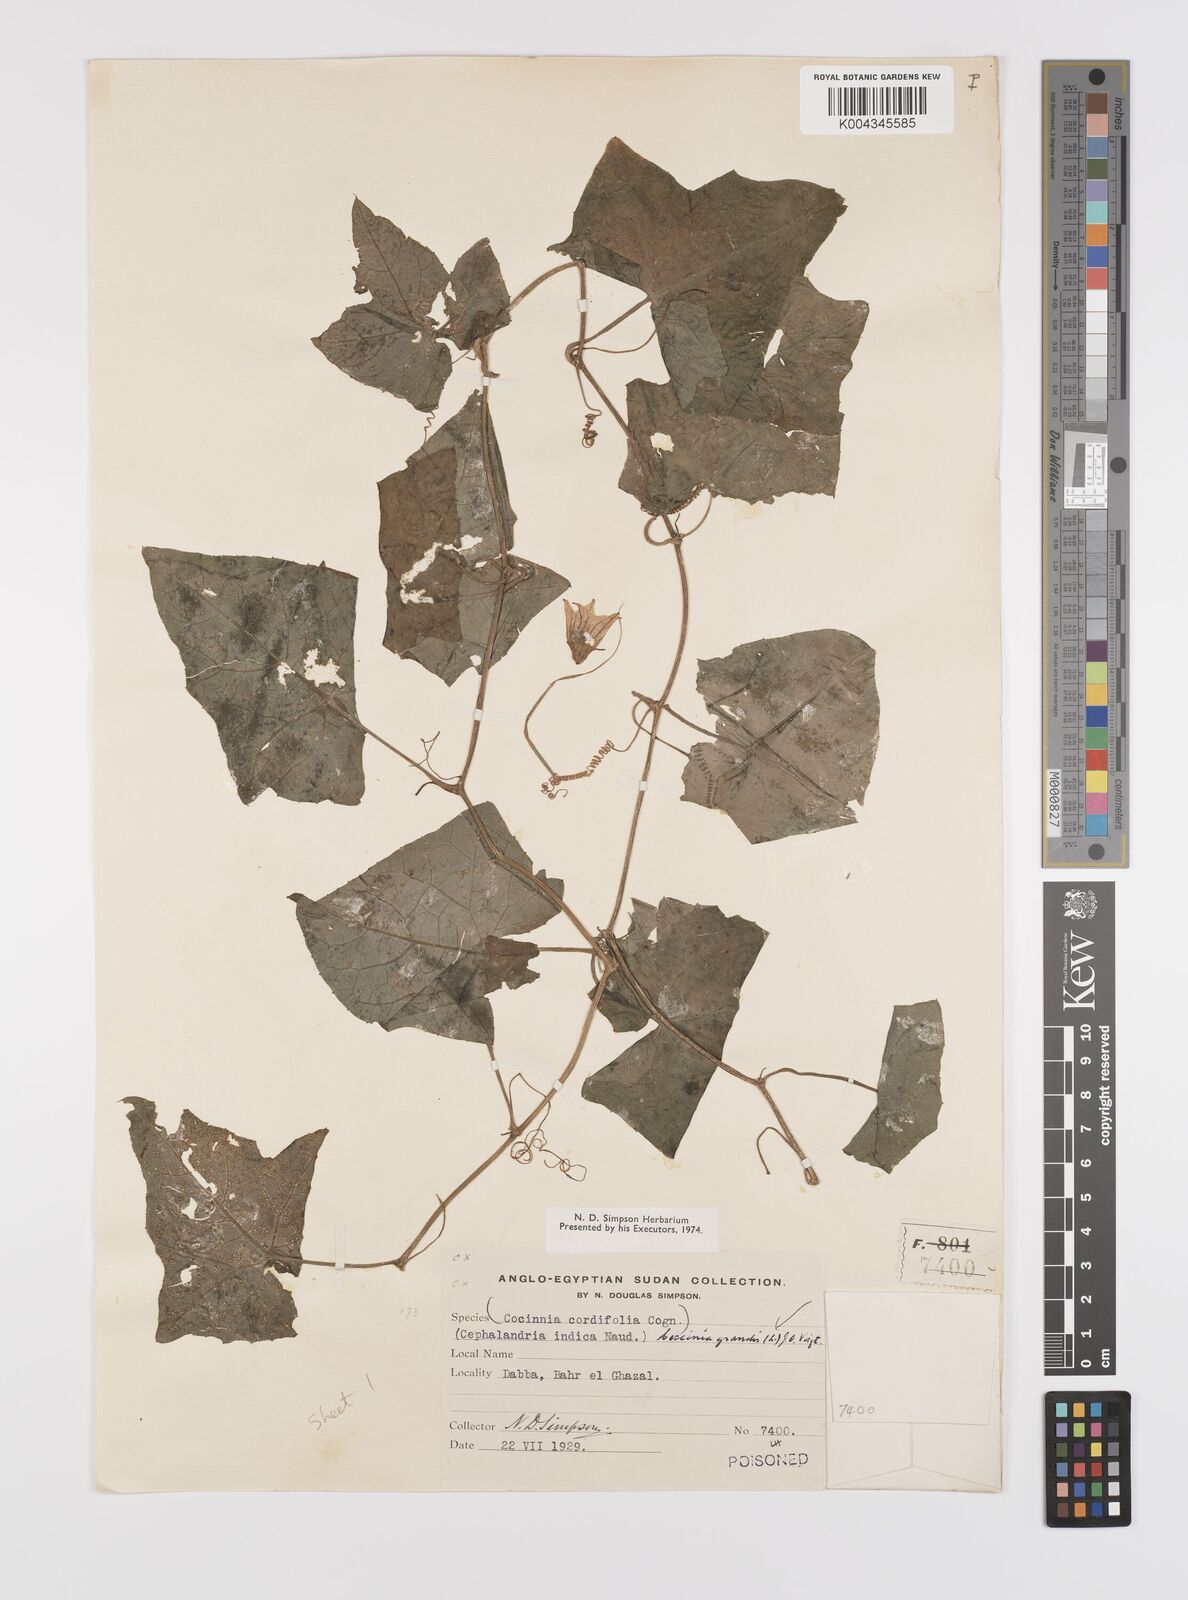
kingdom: Plantae
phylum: Tracheophyta
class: Magnoliopsida
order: Cucurbitales
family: Cucurbitaceae
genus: Coccinia
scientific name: Coccinia grandis
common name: Ivy gourd
